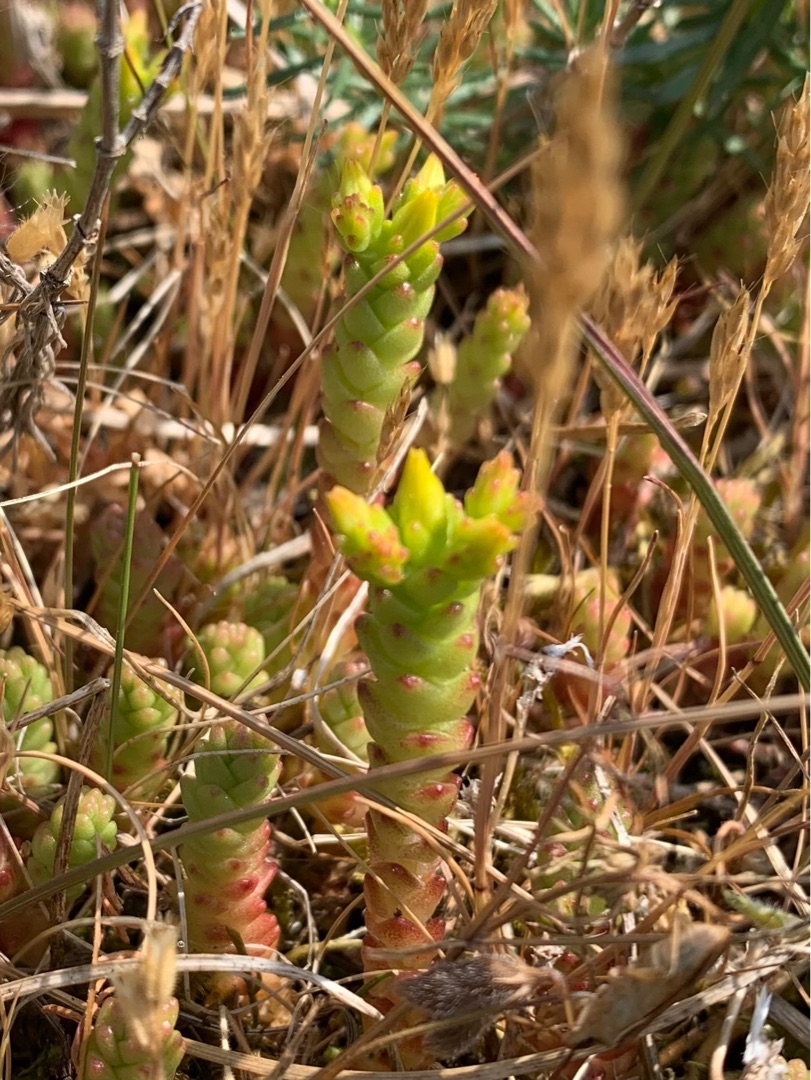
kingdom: Plantae
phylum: Tracheophyta
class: Magnoliopsida
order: Saxifragales
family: Crassulaceae
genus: Sedum
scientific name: Sedum acre
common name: Bidende stenurt
